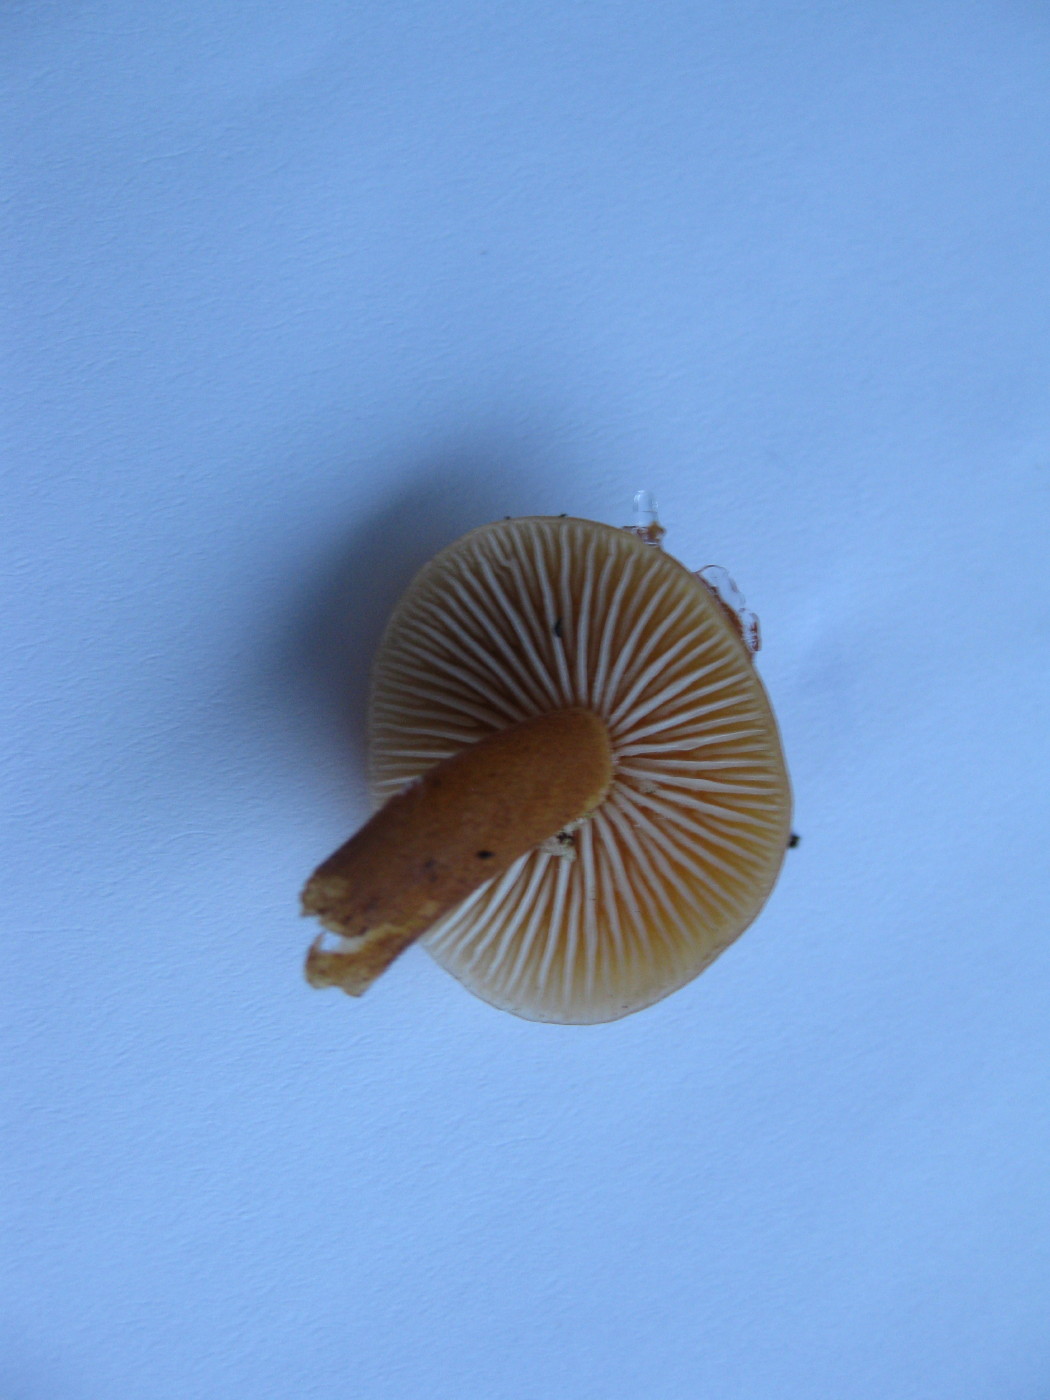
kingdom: Fungi
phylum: Basidiomycota
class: Agaricomycetes
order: Agaricales
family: Physalacriaceae
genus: Flammulina
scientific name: Flammulina velutipes
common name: gul fløjlsfod
